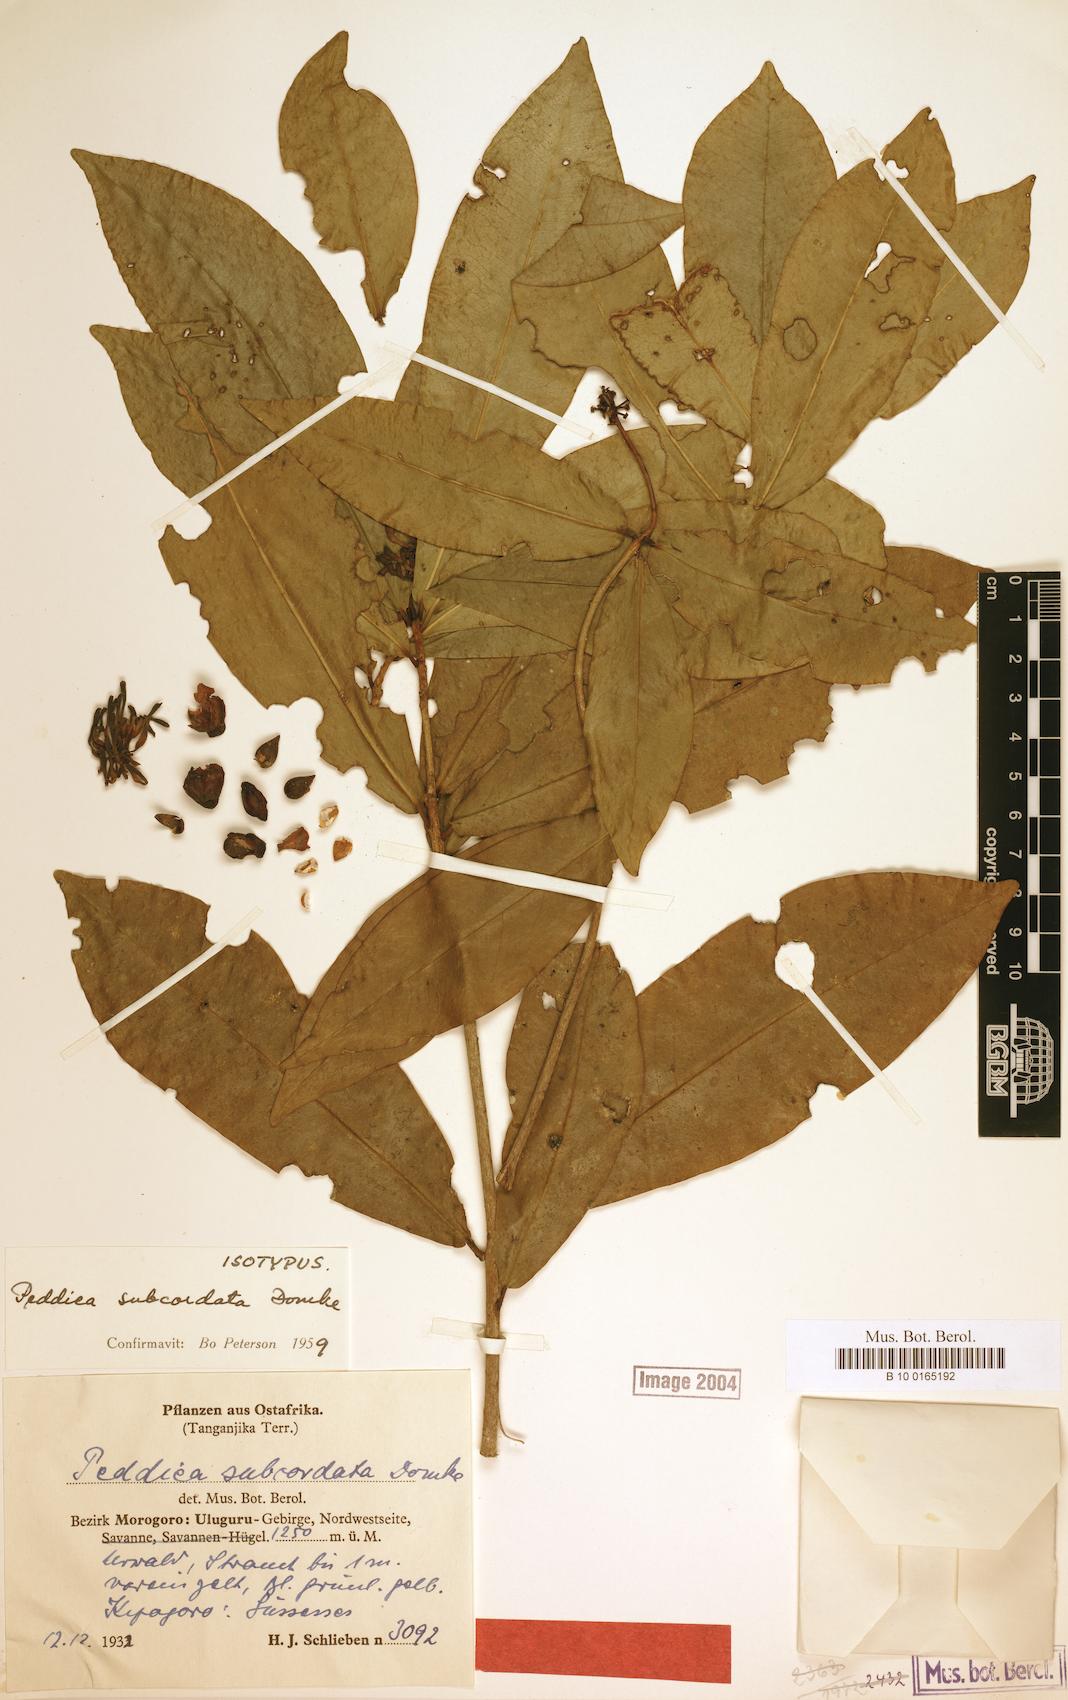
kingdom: Plantae
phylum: Tracheophyta
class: Magnoliopsida
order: Malvales
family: Thymelaeaceae
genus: Peddiea
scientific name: Peddiea subcordata
